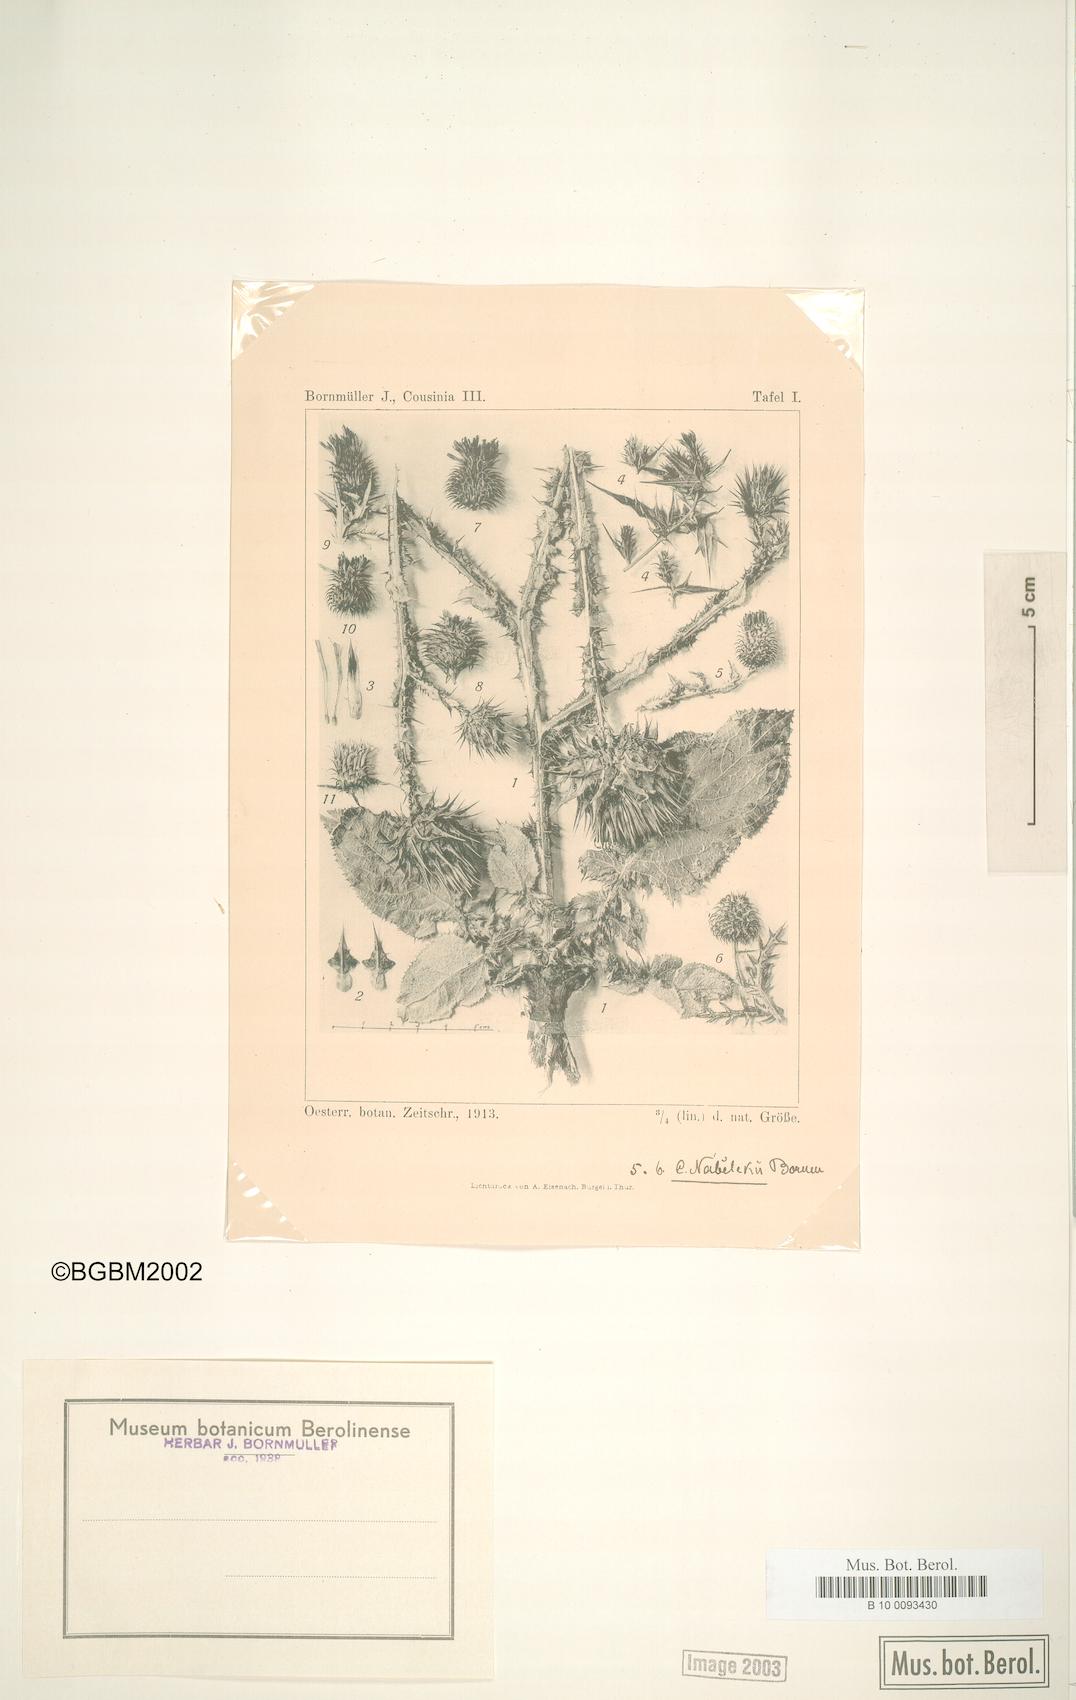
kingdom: Plantae
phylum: Tracheophyta
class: Magnoliopsida
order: Asterales
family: Asteraceae
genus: Cousinia
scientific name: Cousinia nabelekii
